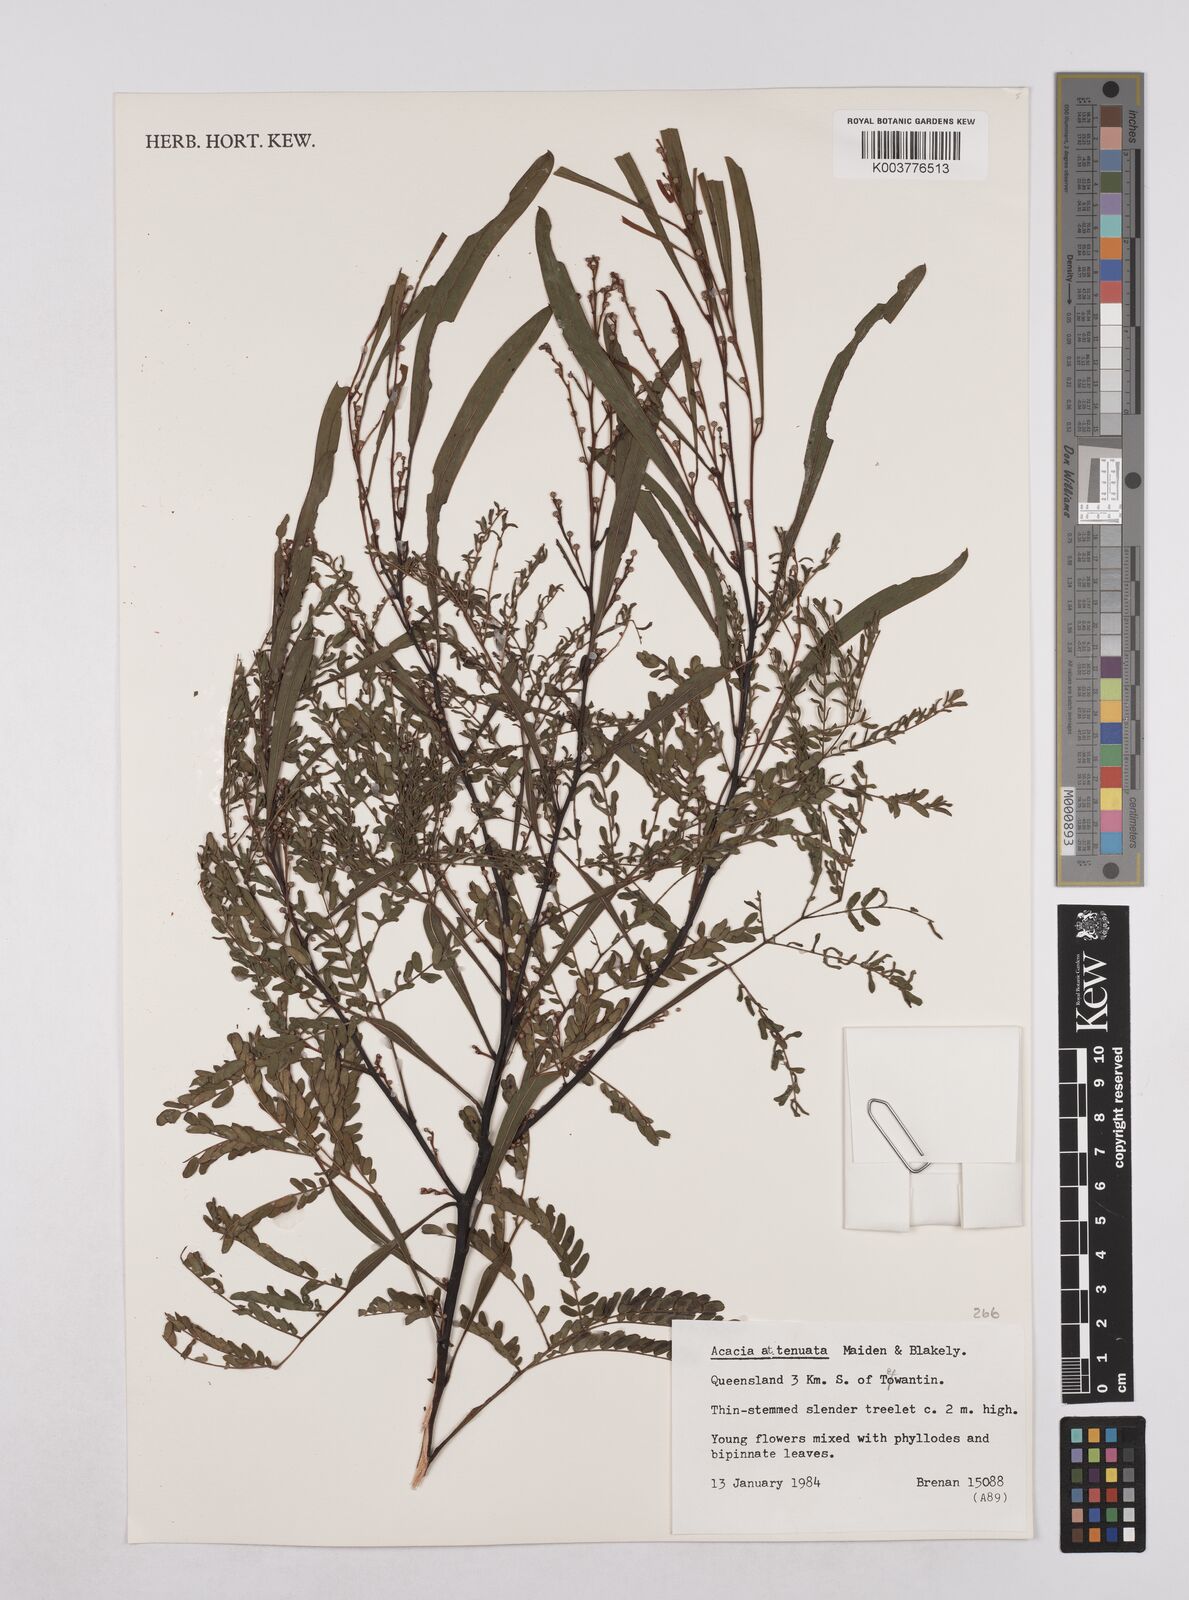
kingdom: Plantae
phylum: Tracheophyta
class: Magnoliopsida
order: Fabales
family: Fabaceae
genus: Acacia
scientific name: Acacia attenuata
